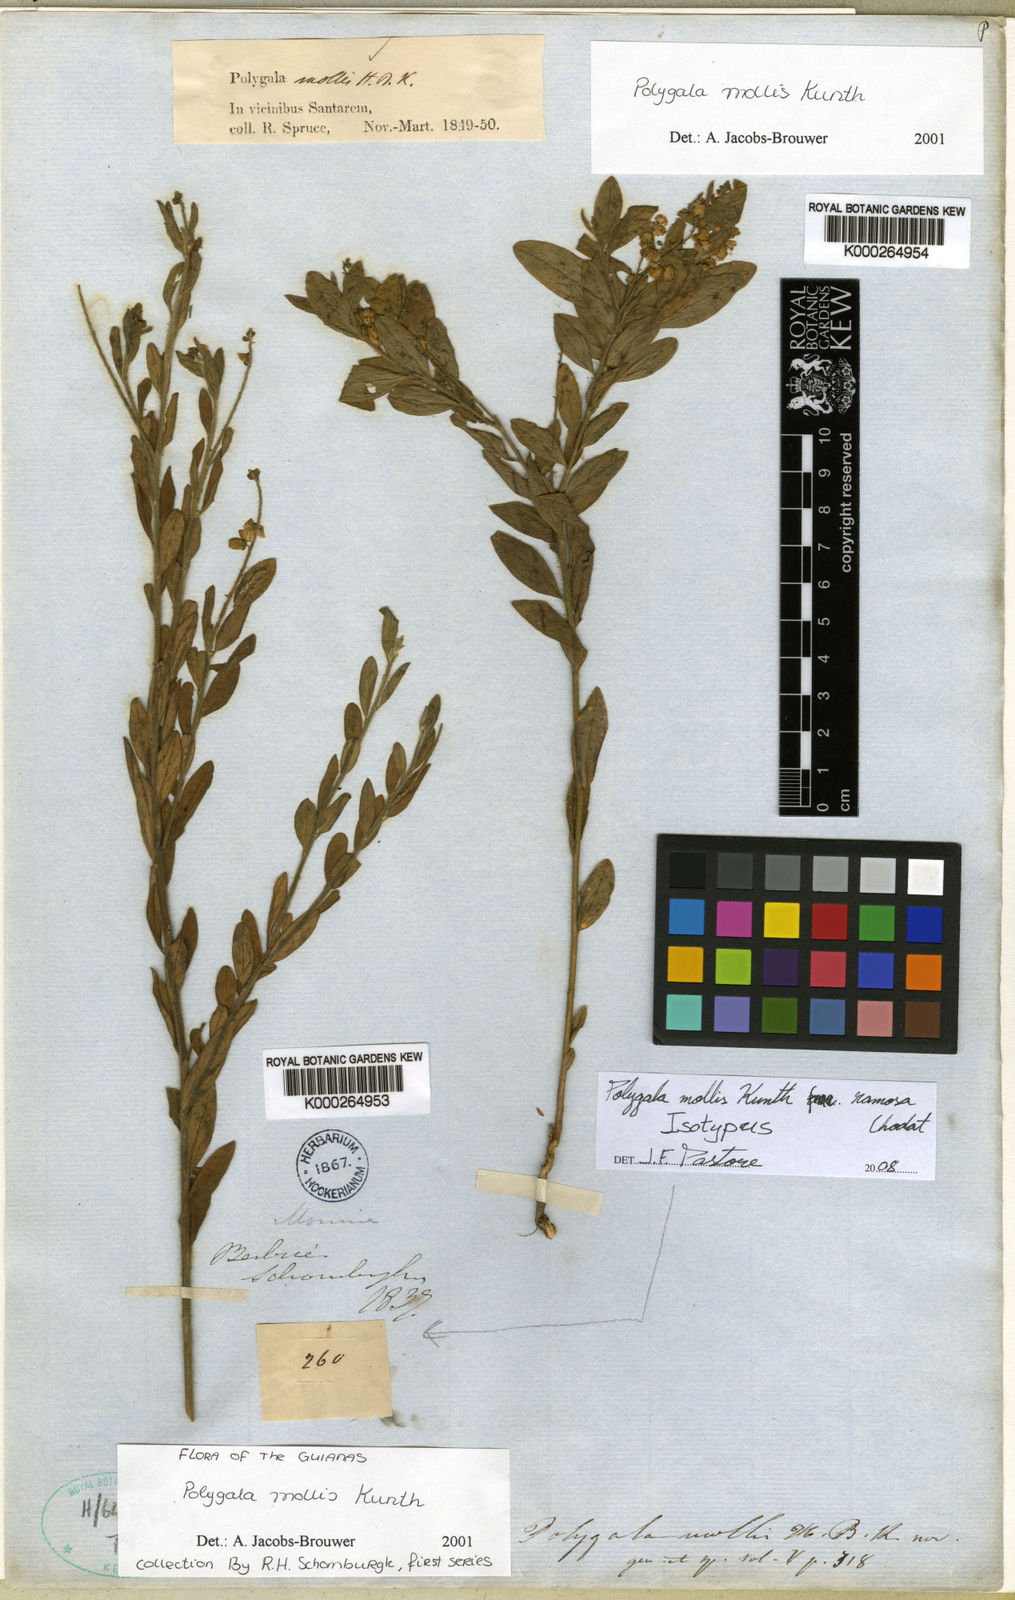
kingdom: Plantae
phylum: Tracheophyta
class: Magnoliopsida
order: Fabales
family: Polygalaceae
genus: Asemeia
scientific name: Asemeia mollis
